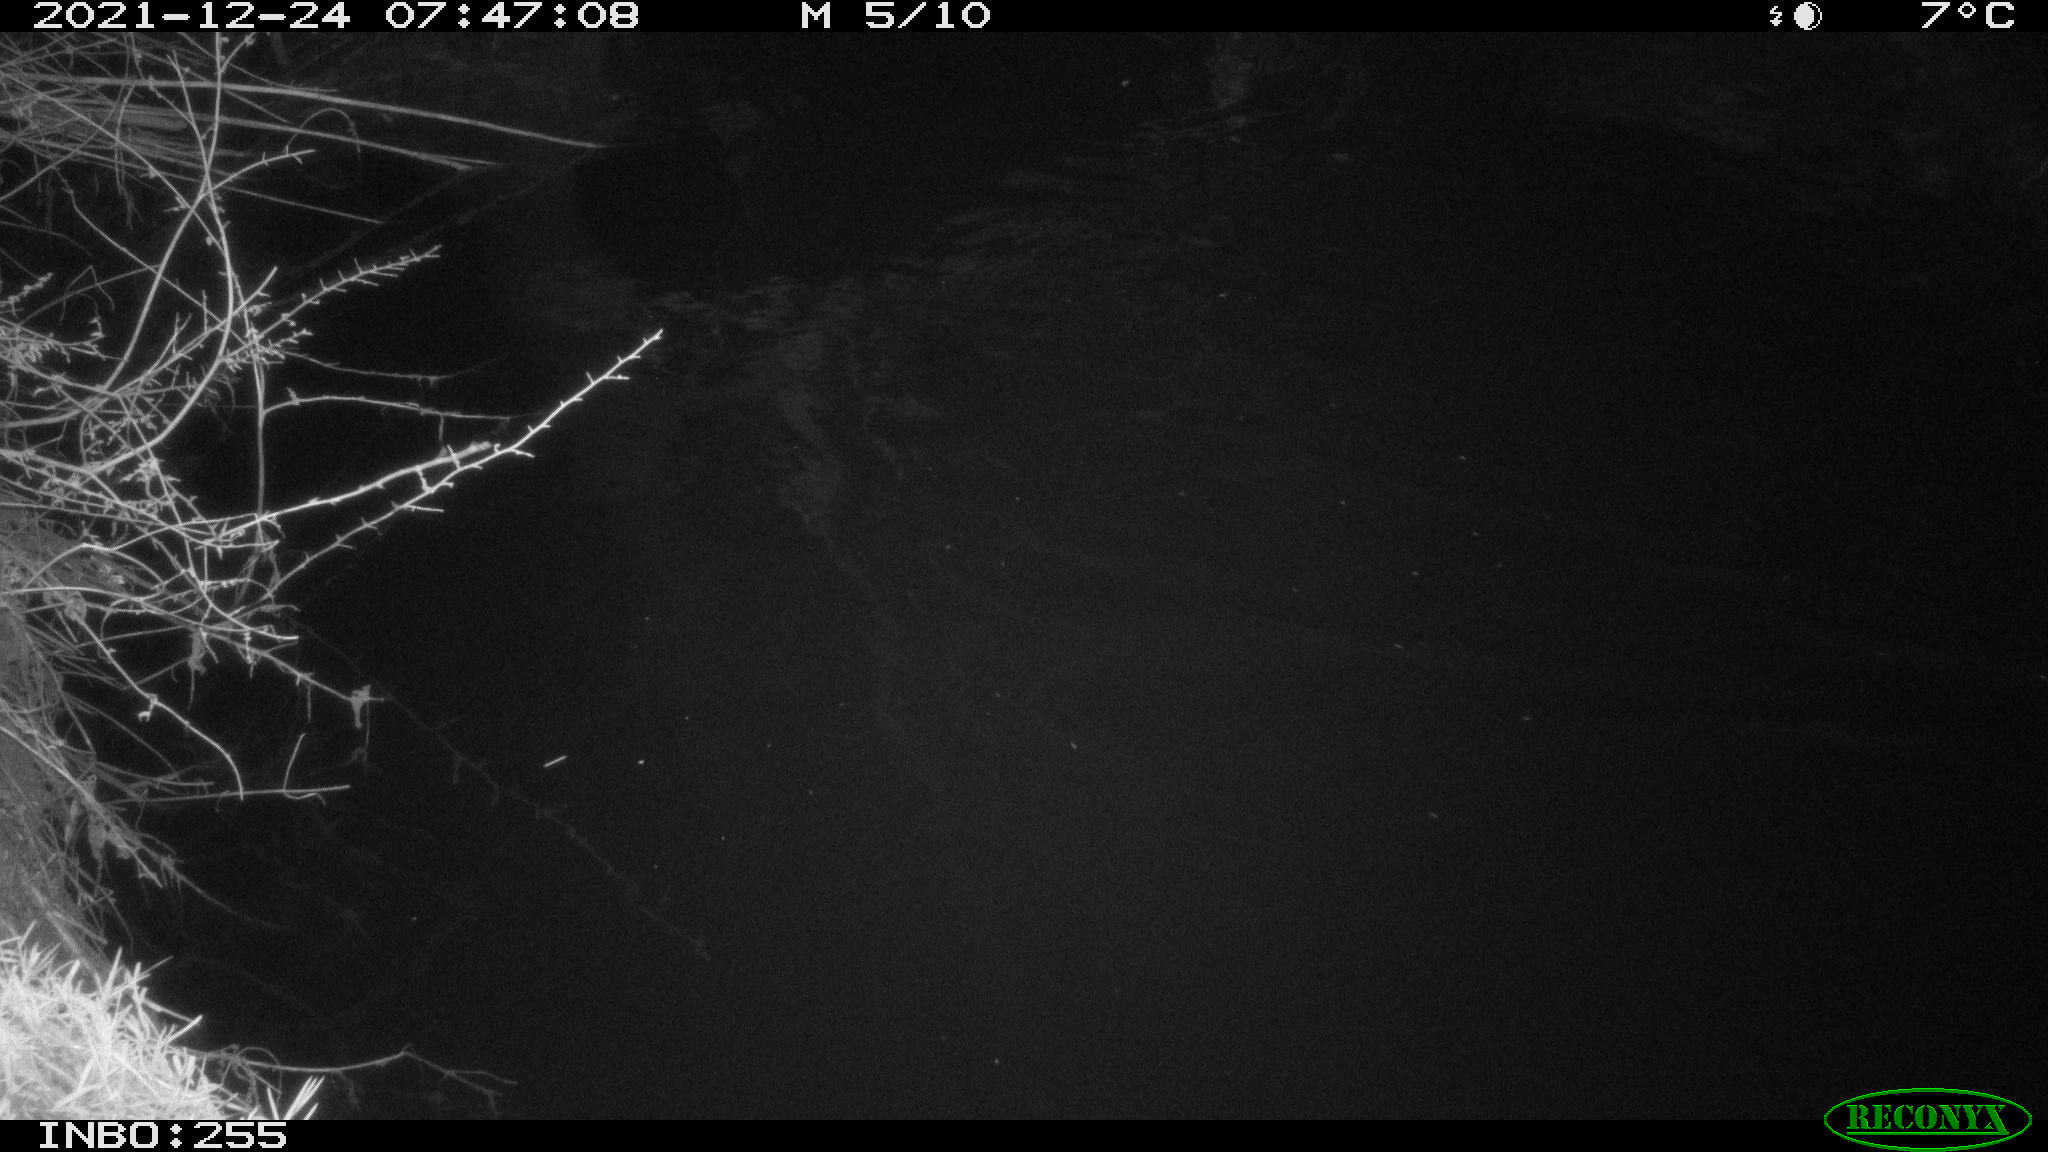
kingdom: Animalia
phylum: Chordata
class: Aves
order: Anseriformes
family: Anatidae
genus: Anas
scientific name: Anas
